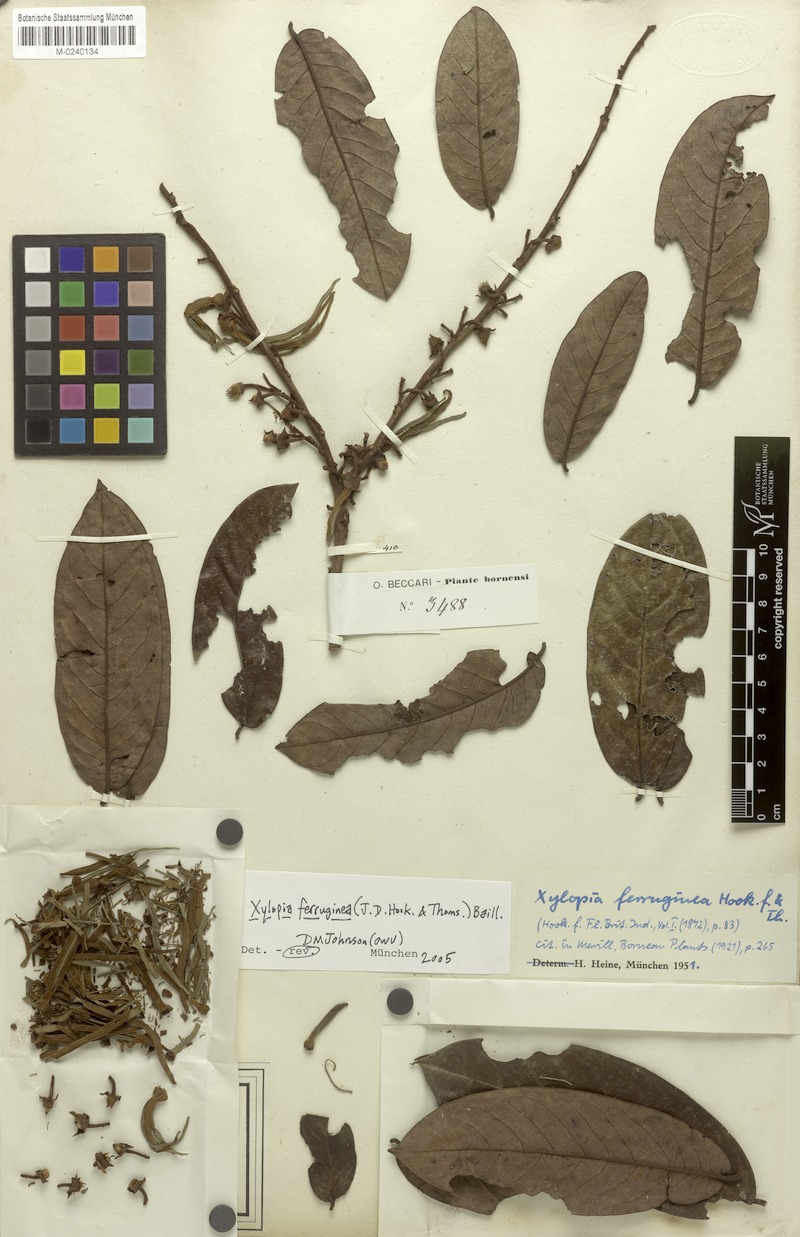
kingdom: Plantae
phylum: Tracheophyta
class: Magnoliopsida
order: Magnoliales
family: Annonaceae
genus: Xylopia
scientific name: Xylopia ferruginea
